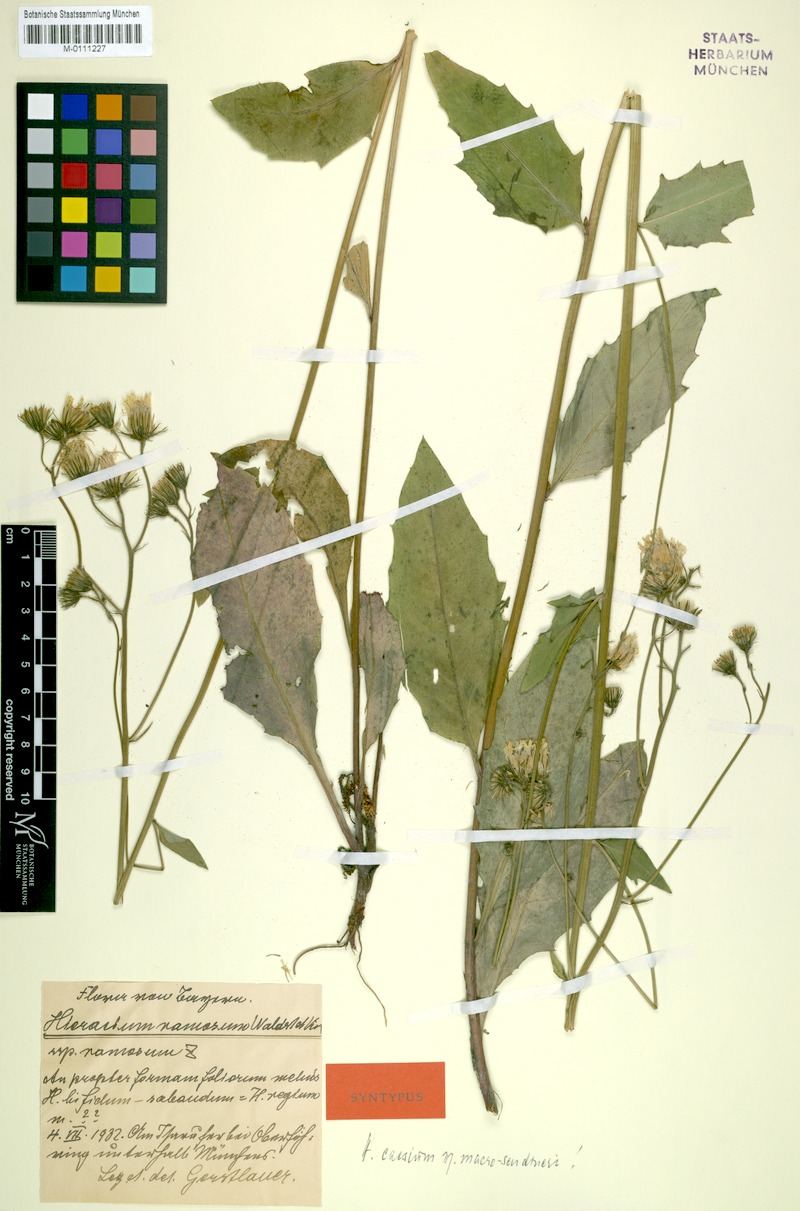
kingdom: Plantae
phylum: Tracheophyta
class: Magnoliopsida
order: Asterales
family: Asteraceae
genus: Hieracium
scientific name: Hieracium caesium
